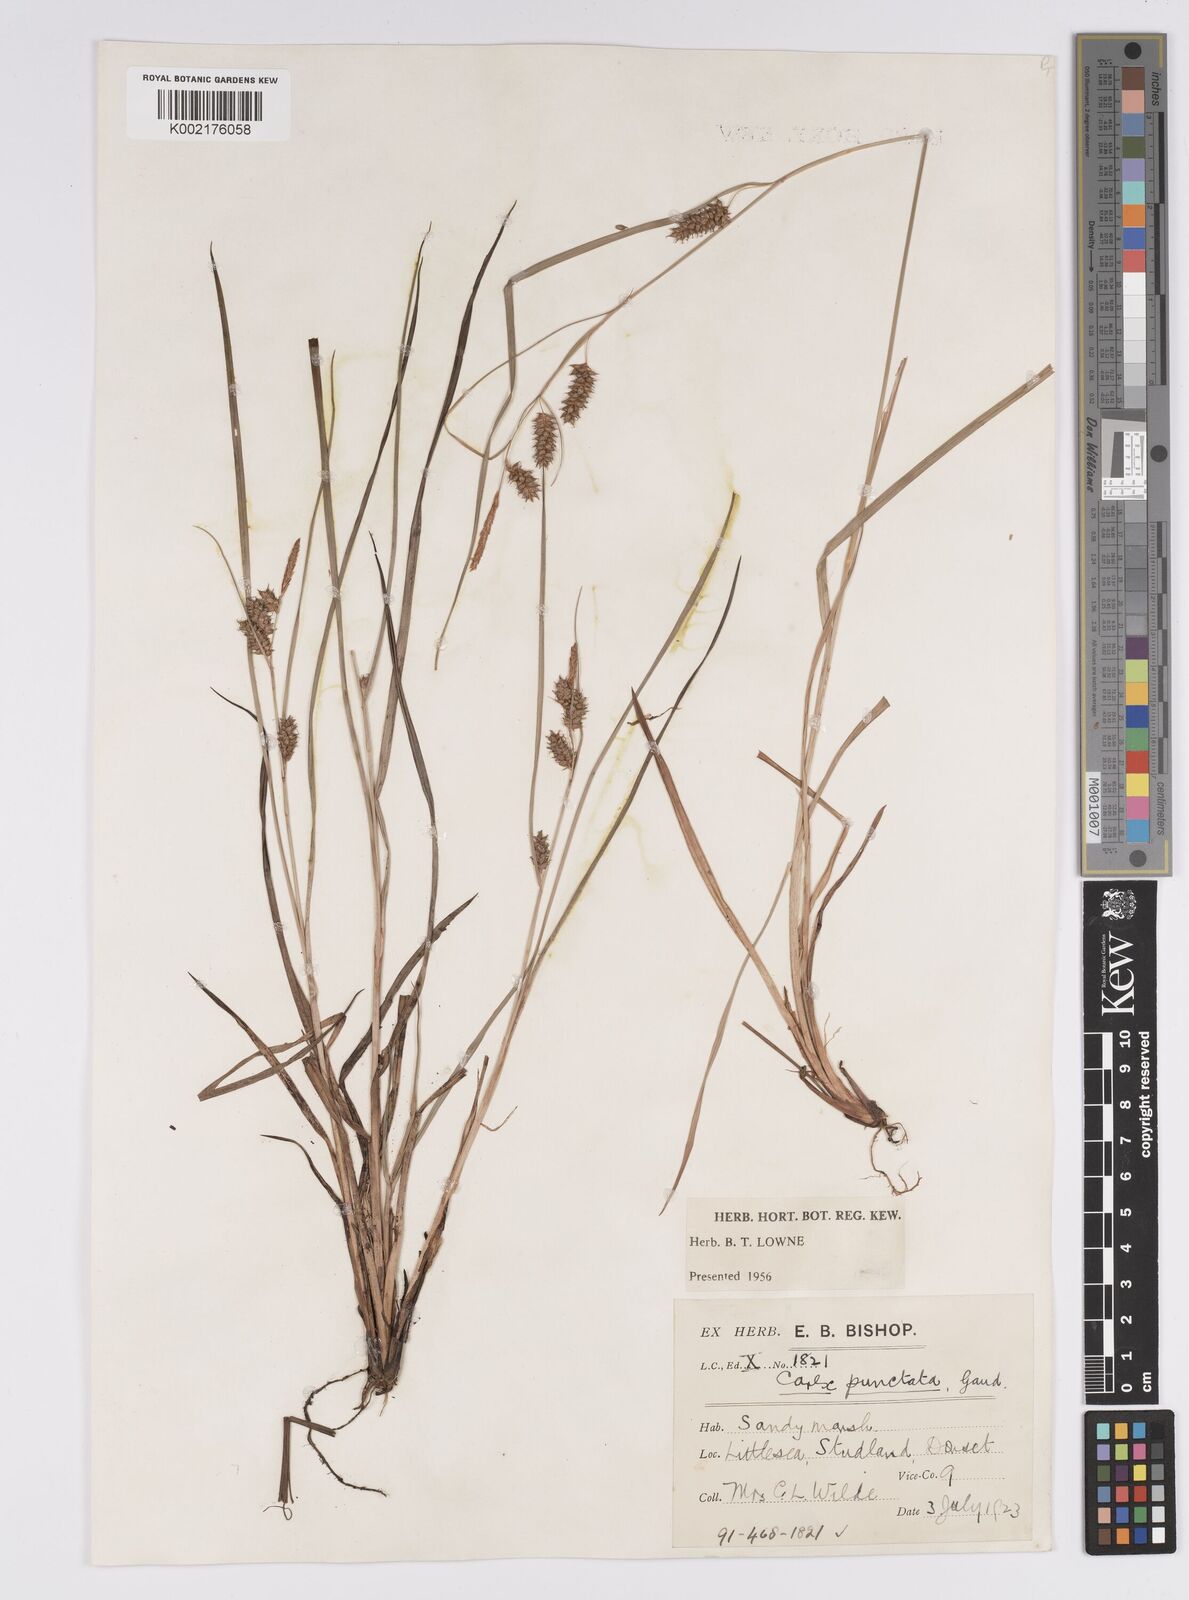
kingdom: Plantae
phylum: Tracheophyta
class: Liliopsida
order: Poales
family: Cyperaceae
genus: Carex
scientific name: Carex punctata
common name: Dotted sedge
